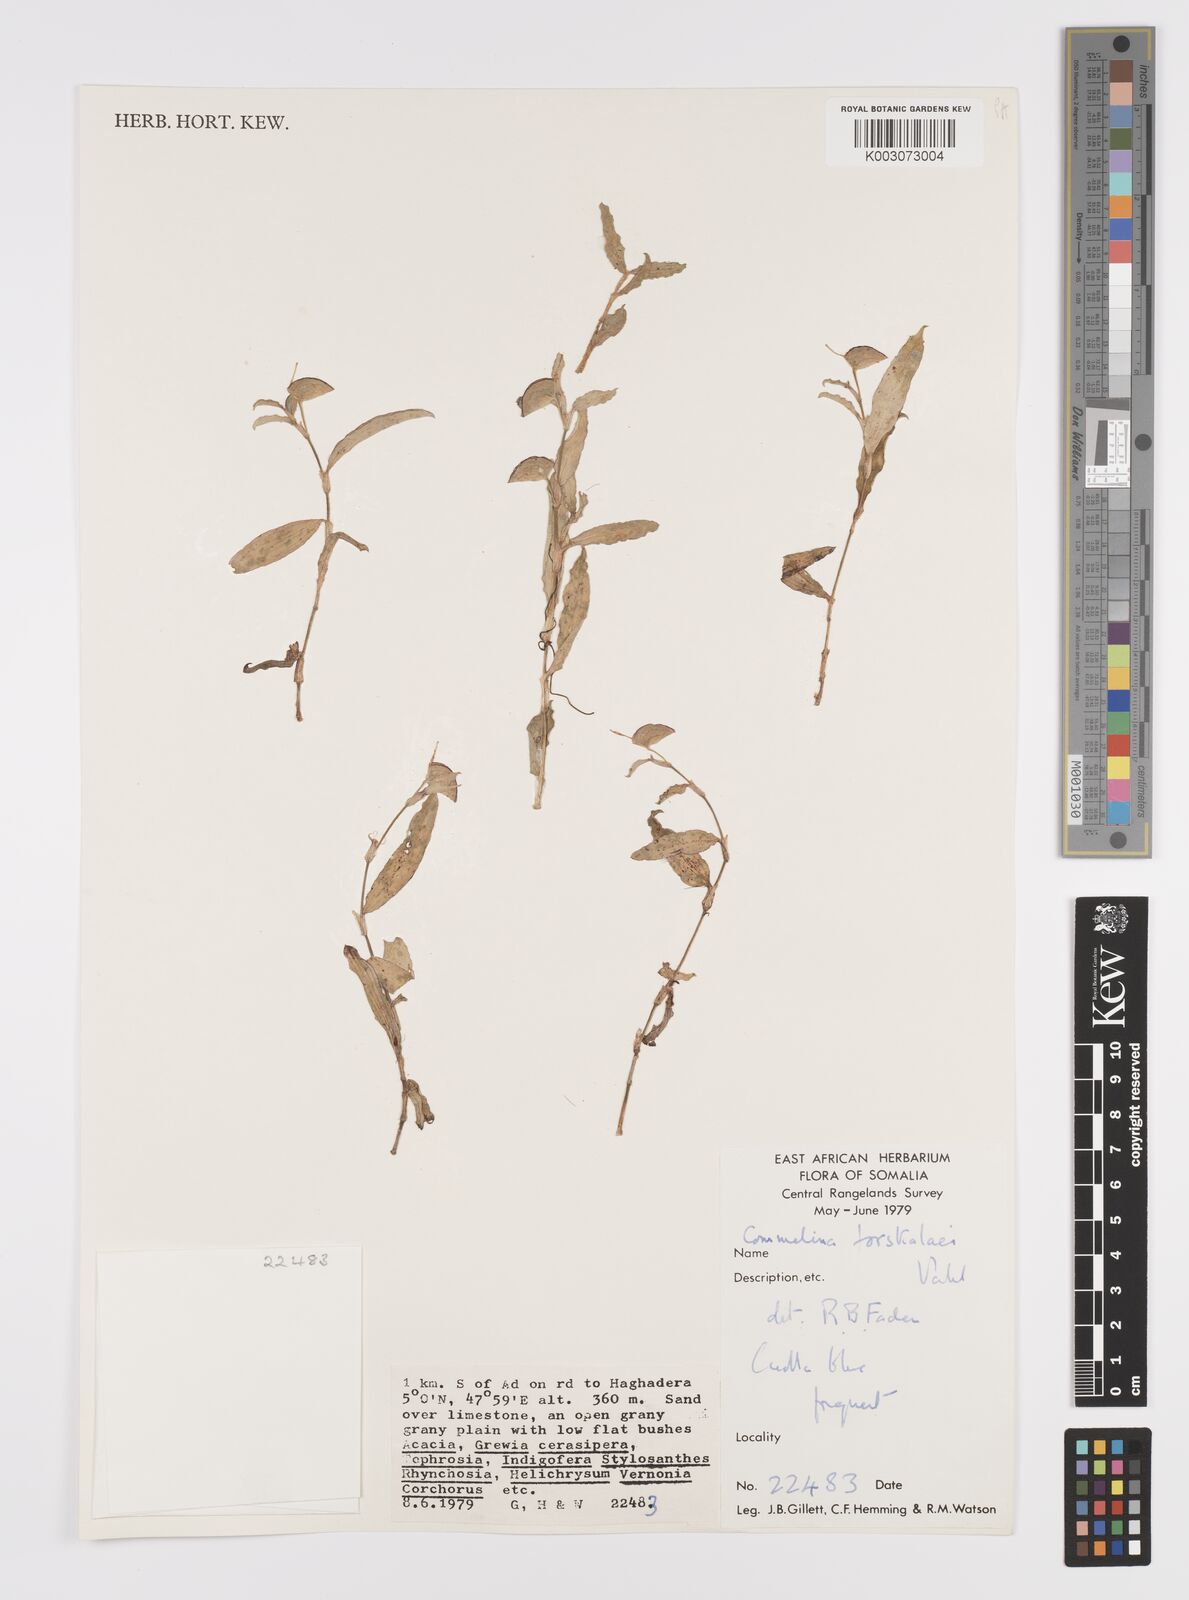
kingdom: Plantae
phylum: Tracheophyta
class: Liliopsida
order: Commelinales
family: Commelinaceae
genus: Commelina
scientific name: Commelina forskaolii
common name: Rat's ear
